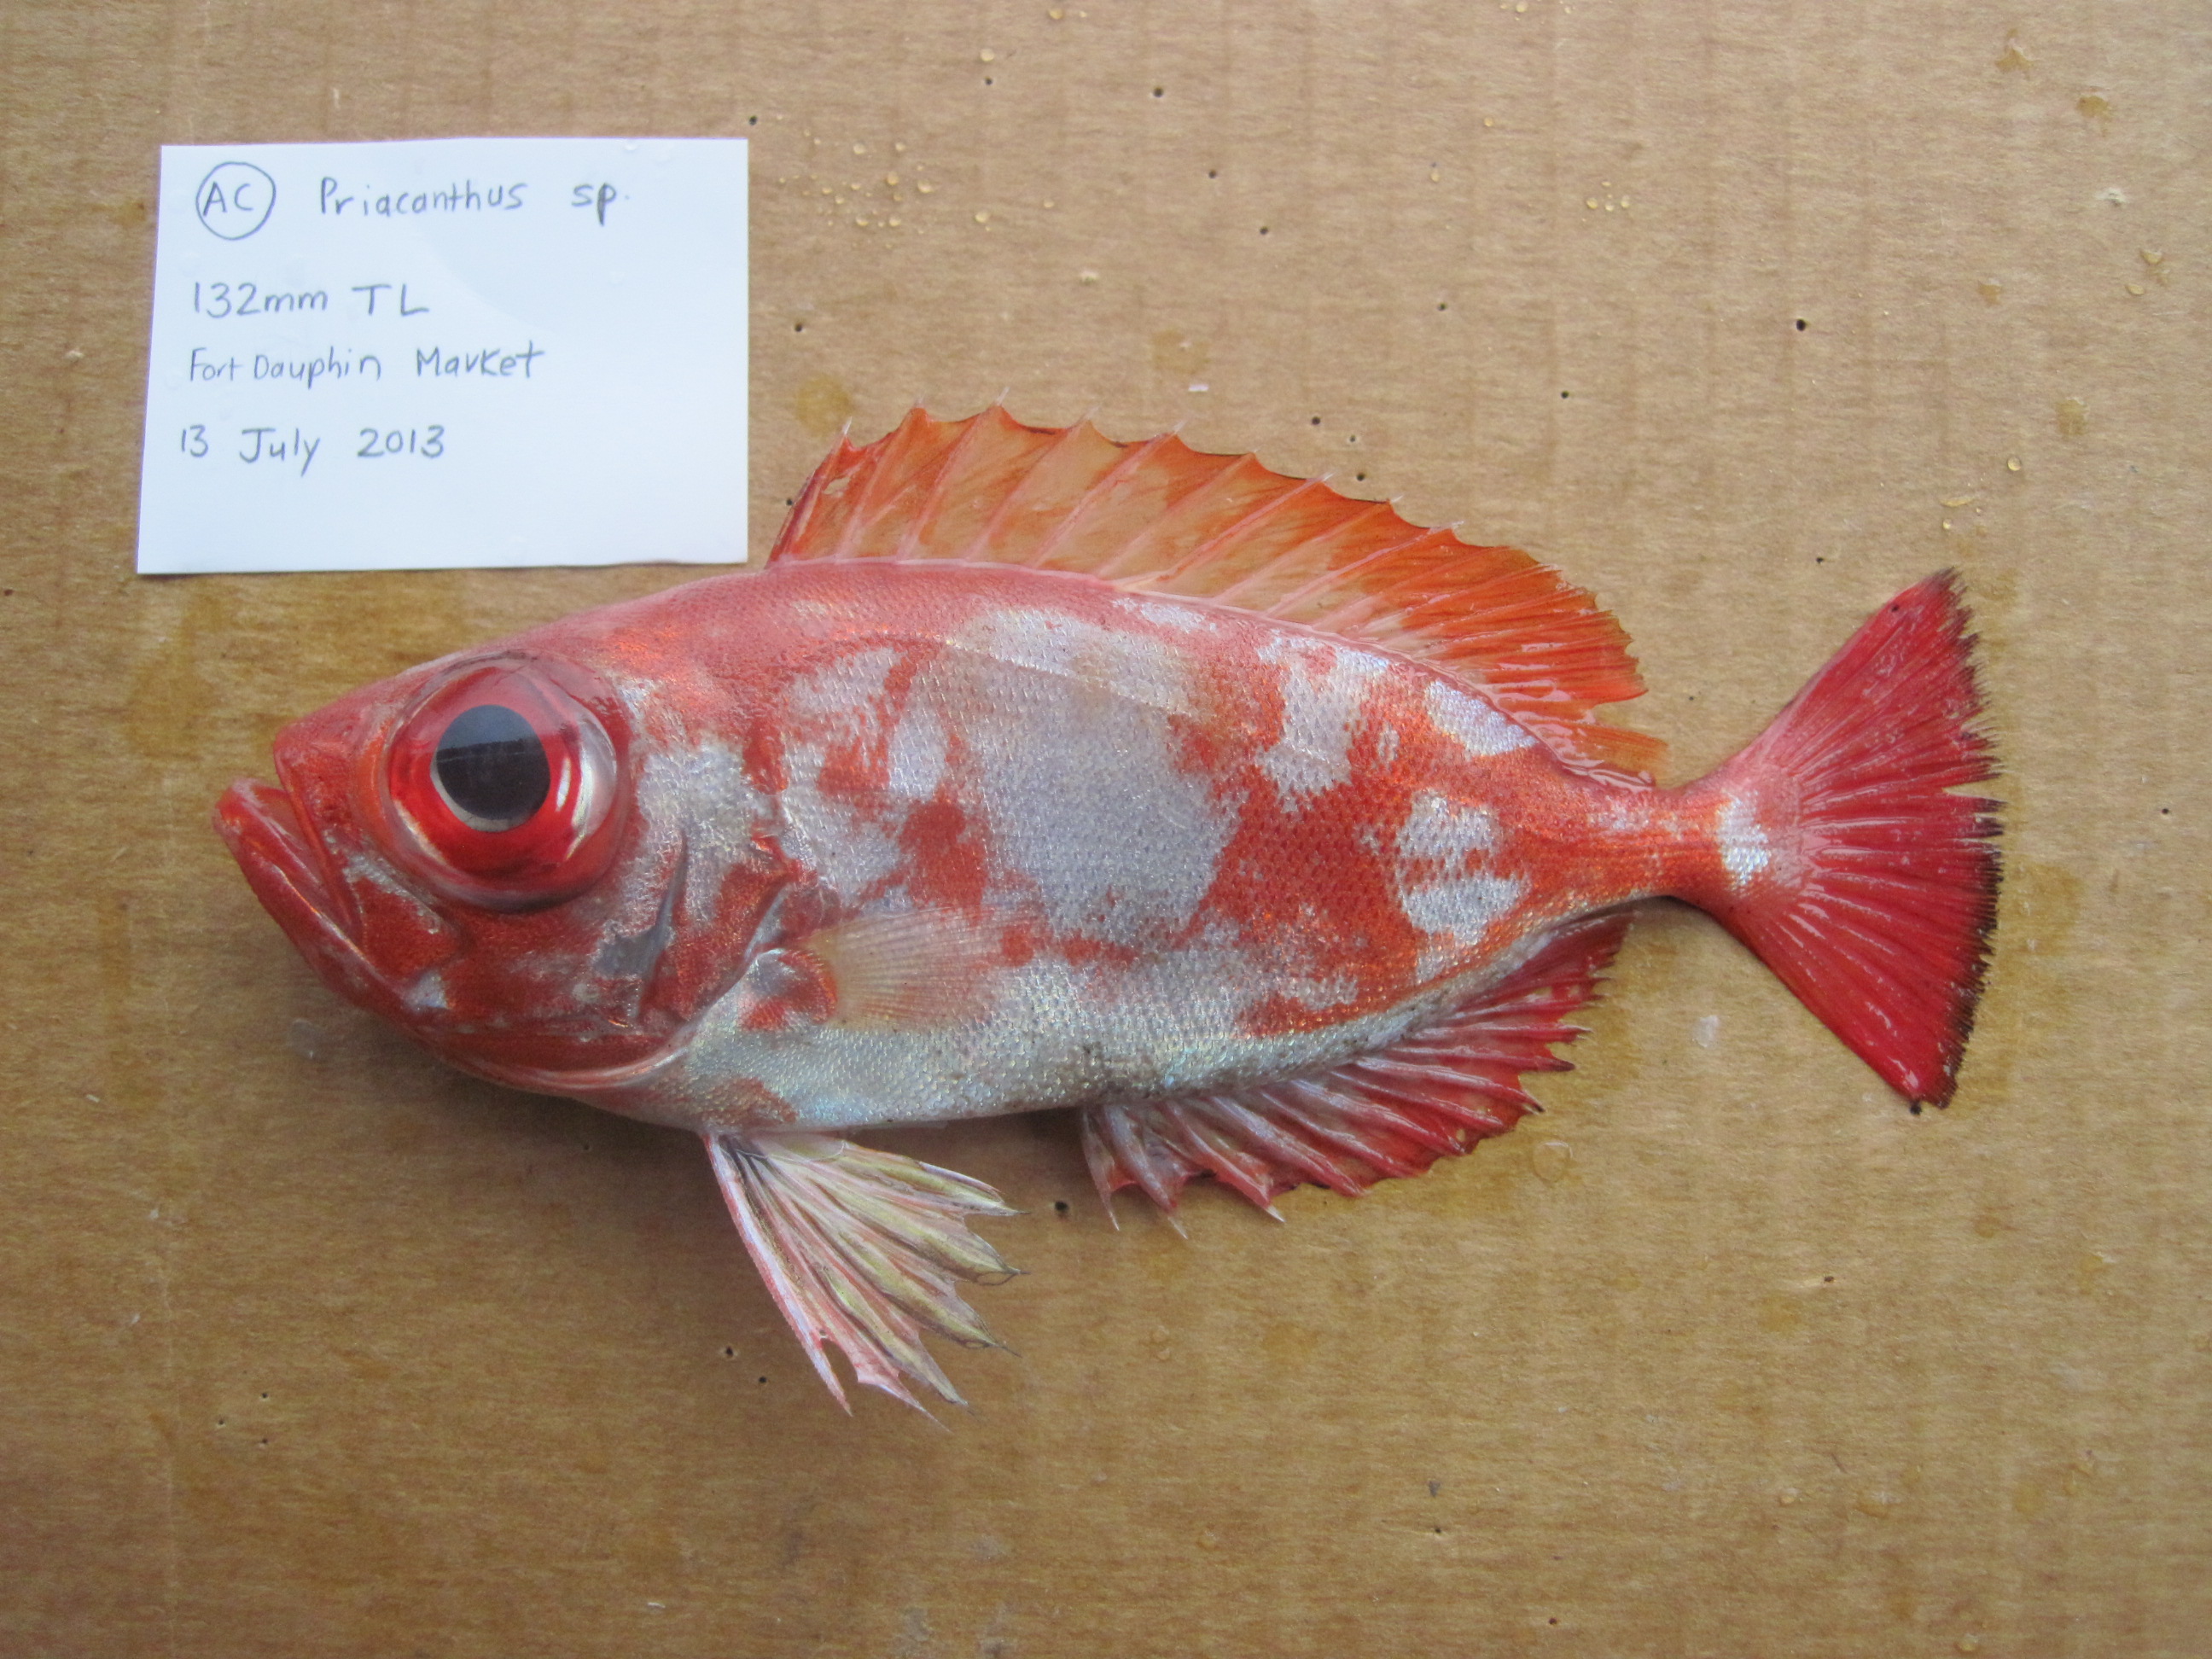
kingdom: Animalia
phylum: Chordata
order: Perciformes
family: Priacanthidae
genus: Priacanthus
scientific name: Priacanthus
